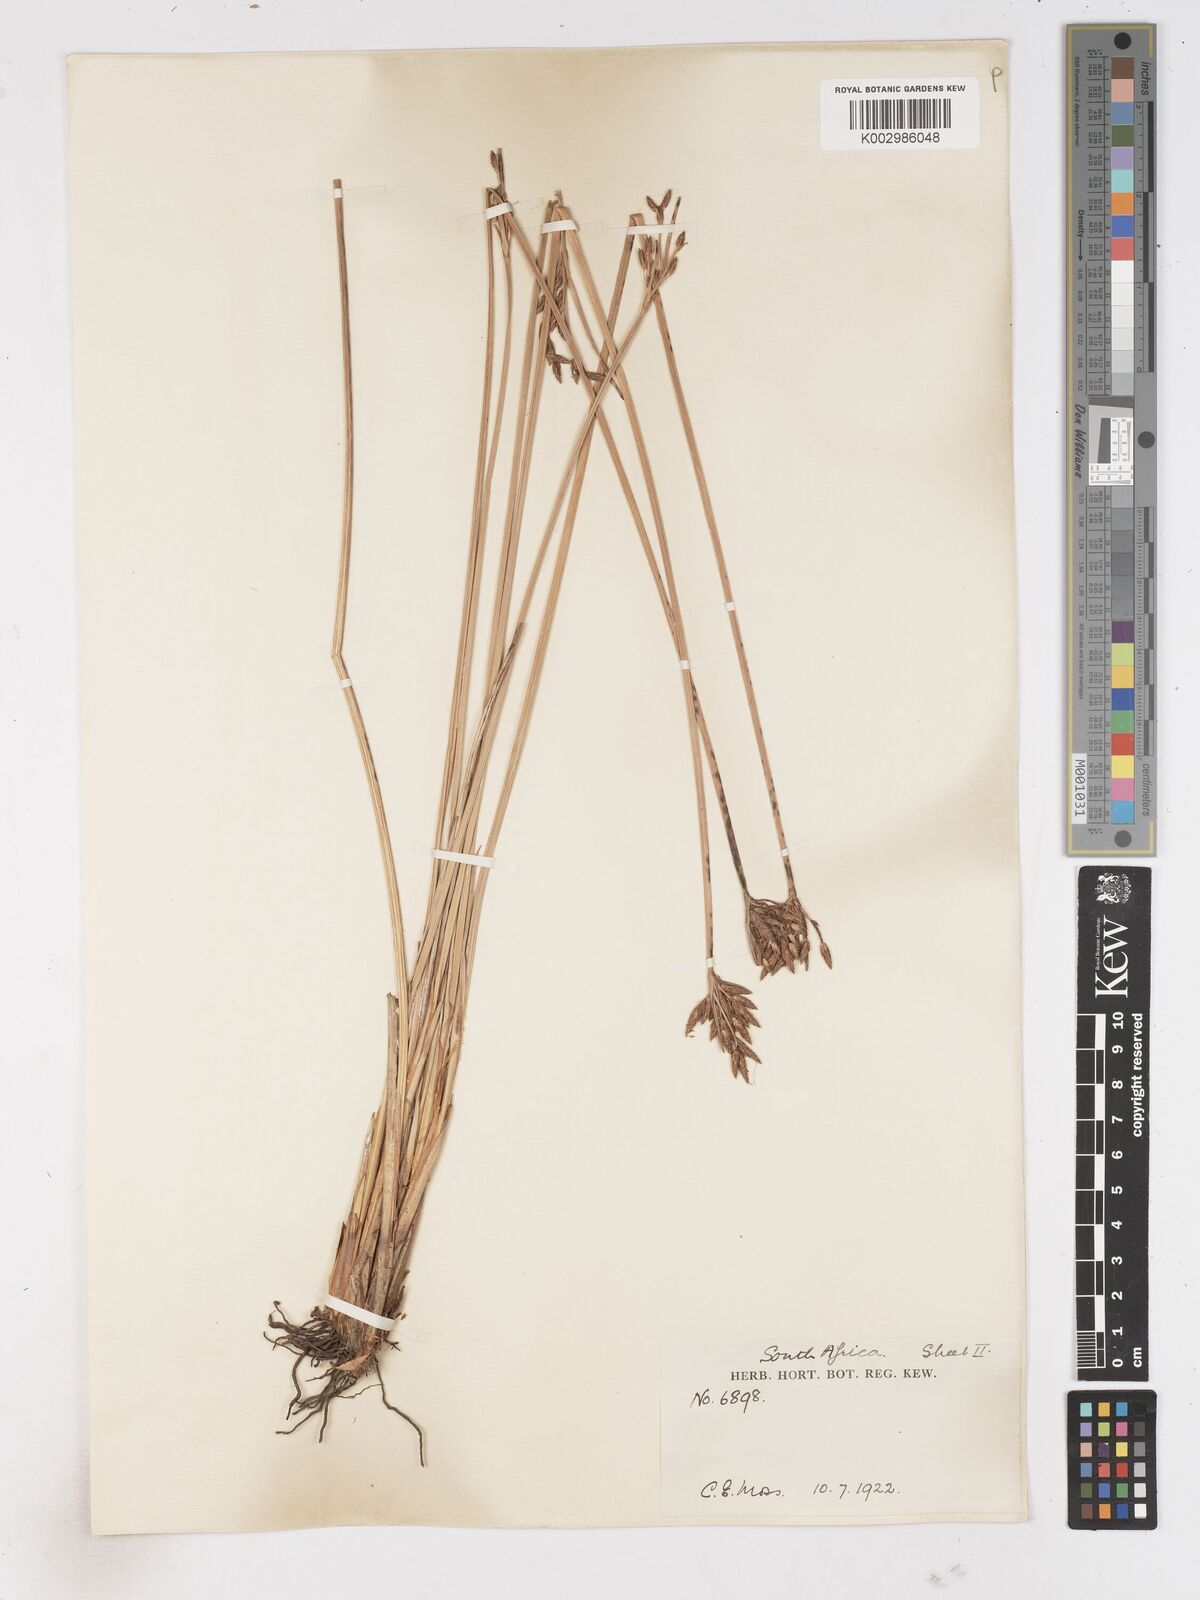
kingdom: Plantae
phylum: Tracheophyta
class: Liliopsida
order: Poales
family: Cyperaceae
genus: Fimbristylis
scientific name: Fimbristylis
